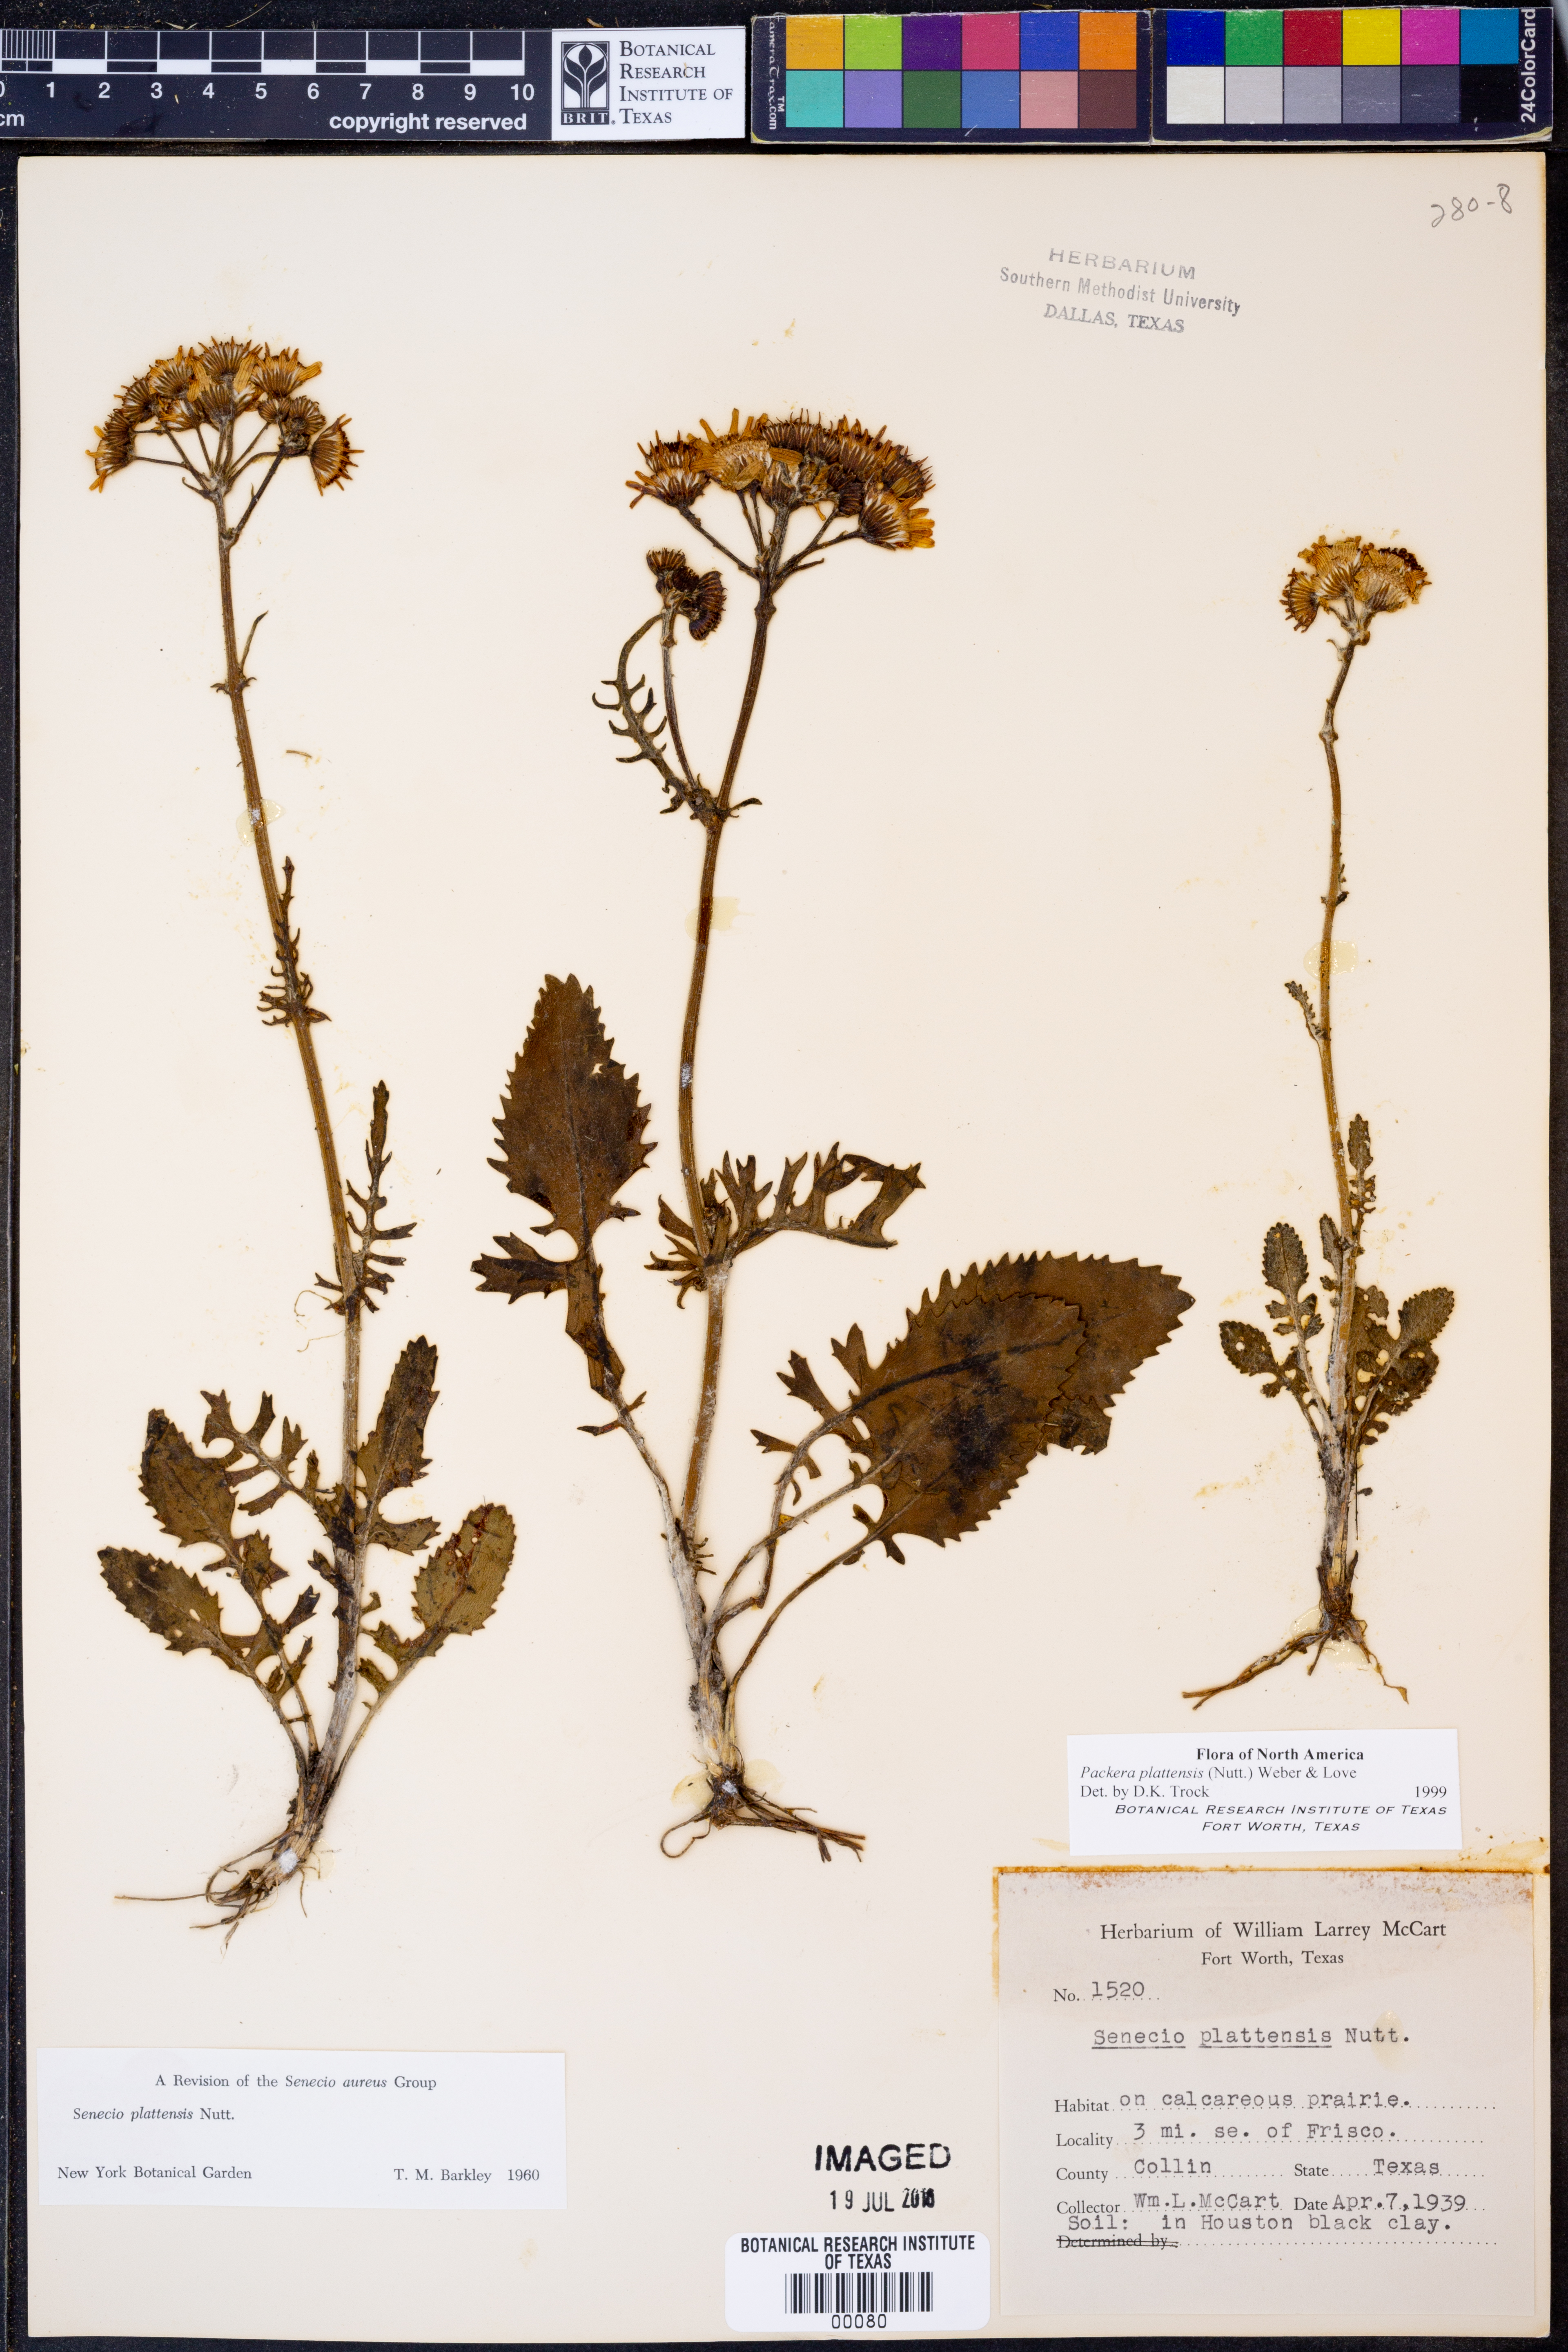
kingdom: Plantae
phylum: Tracheophyta
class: Magnoliopsida
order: Asterales
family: Asteraceae
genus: Packera
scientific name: Packera plattensis
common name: Prairie groundsel
